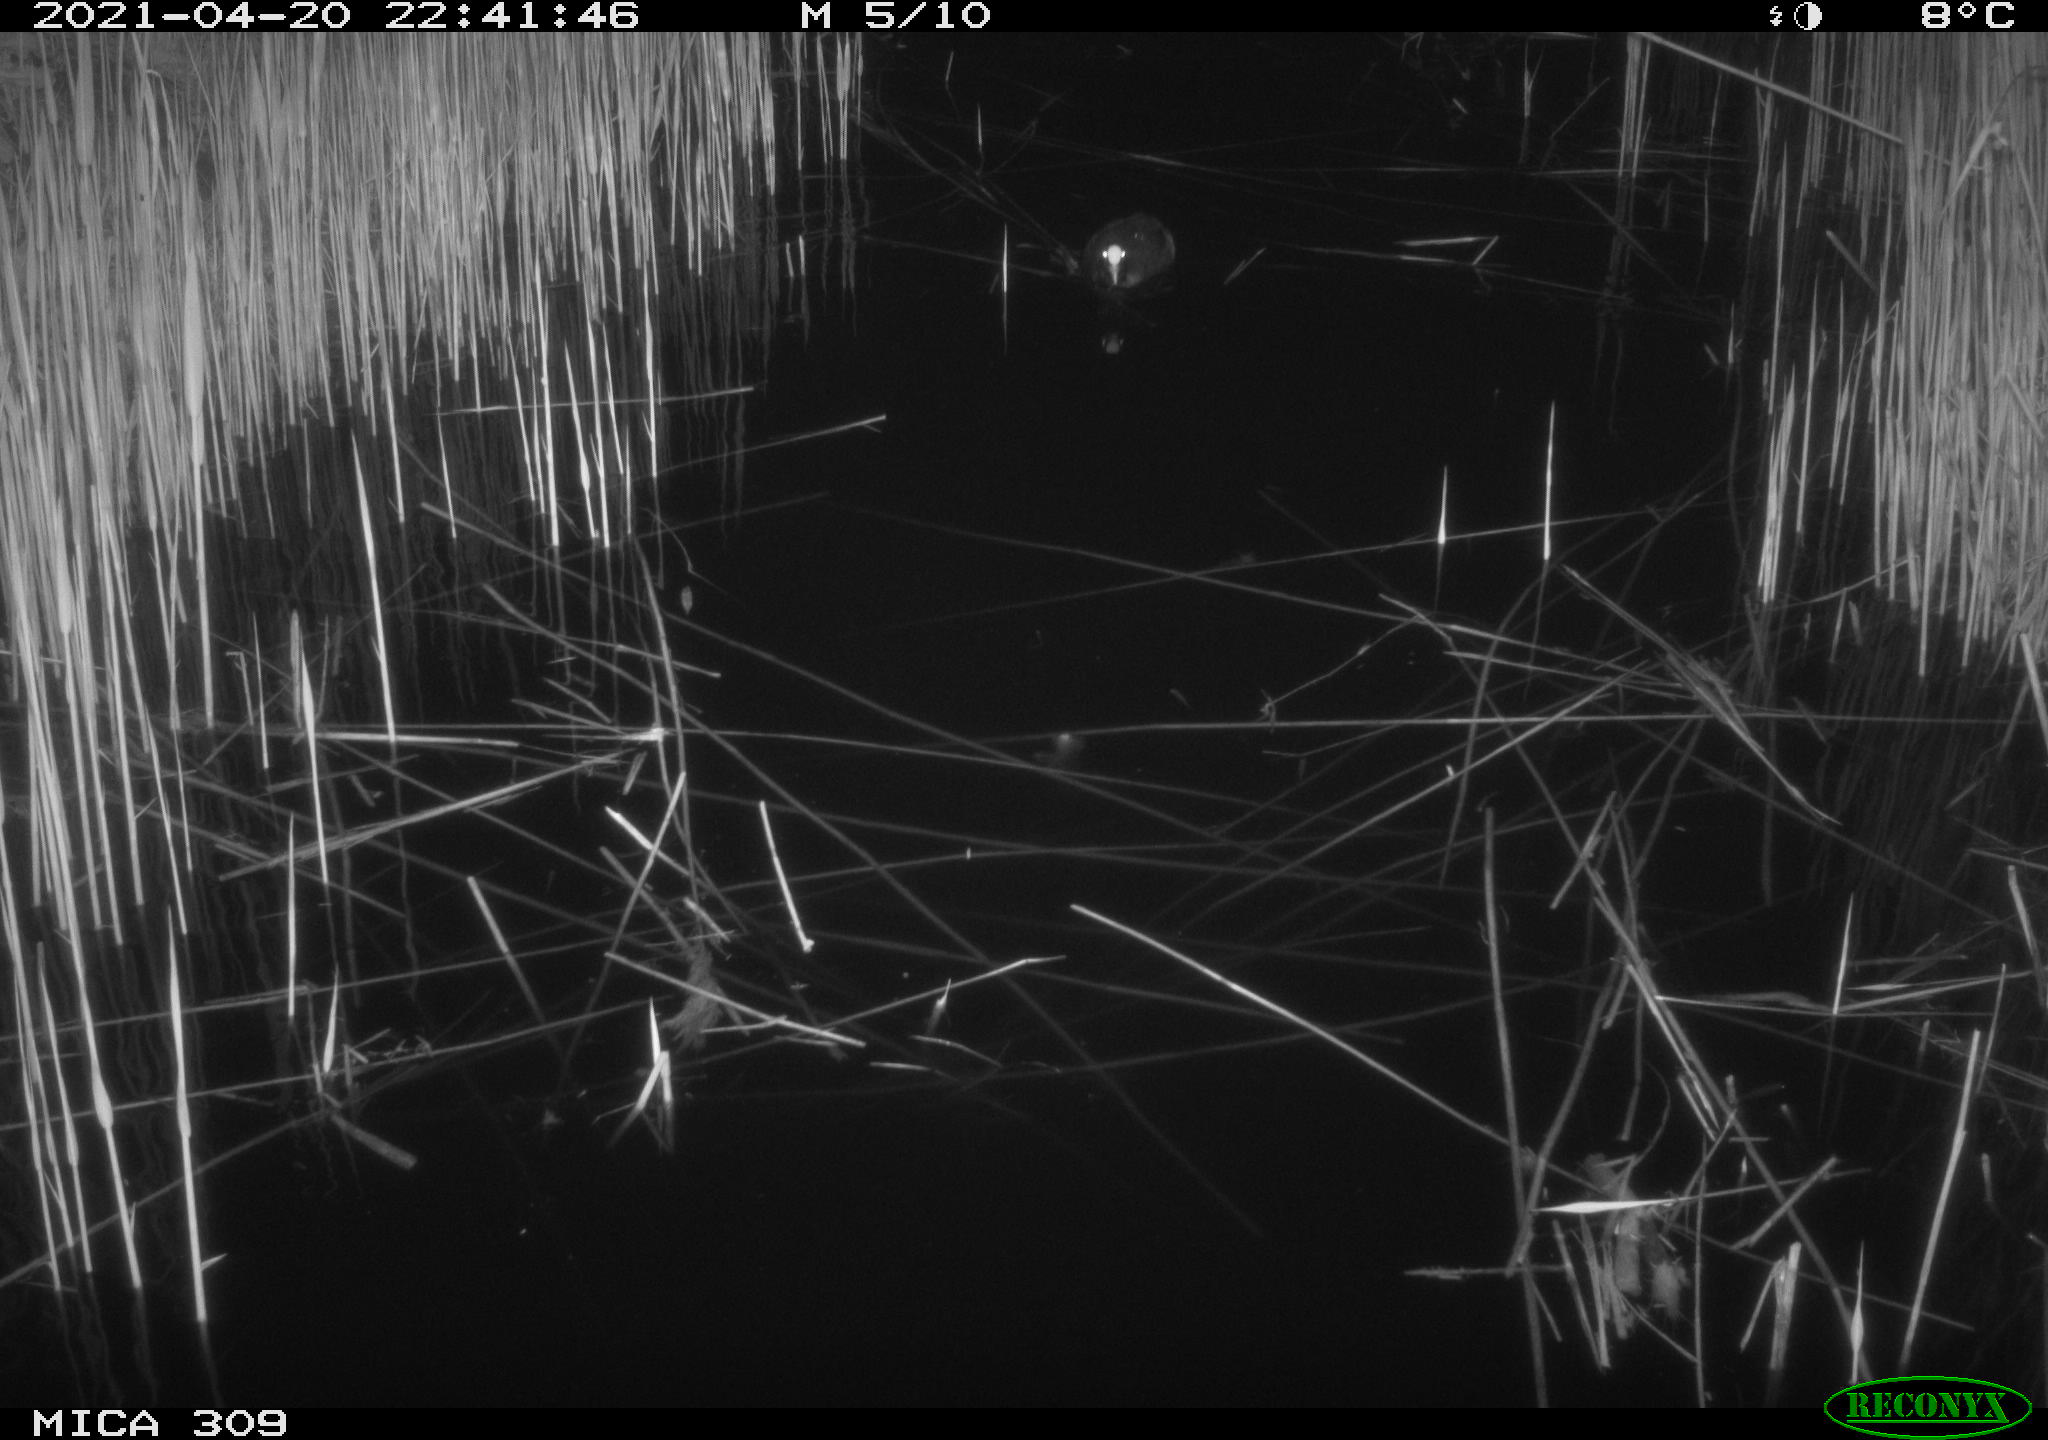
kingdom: Animalia
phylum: Chordata
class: Aves
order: Gruiformes
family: Rallidae
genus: Fulica
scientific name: Fulica atra
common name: Eurasian coot
